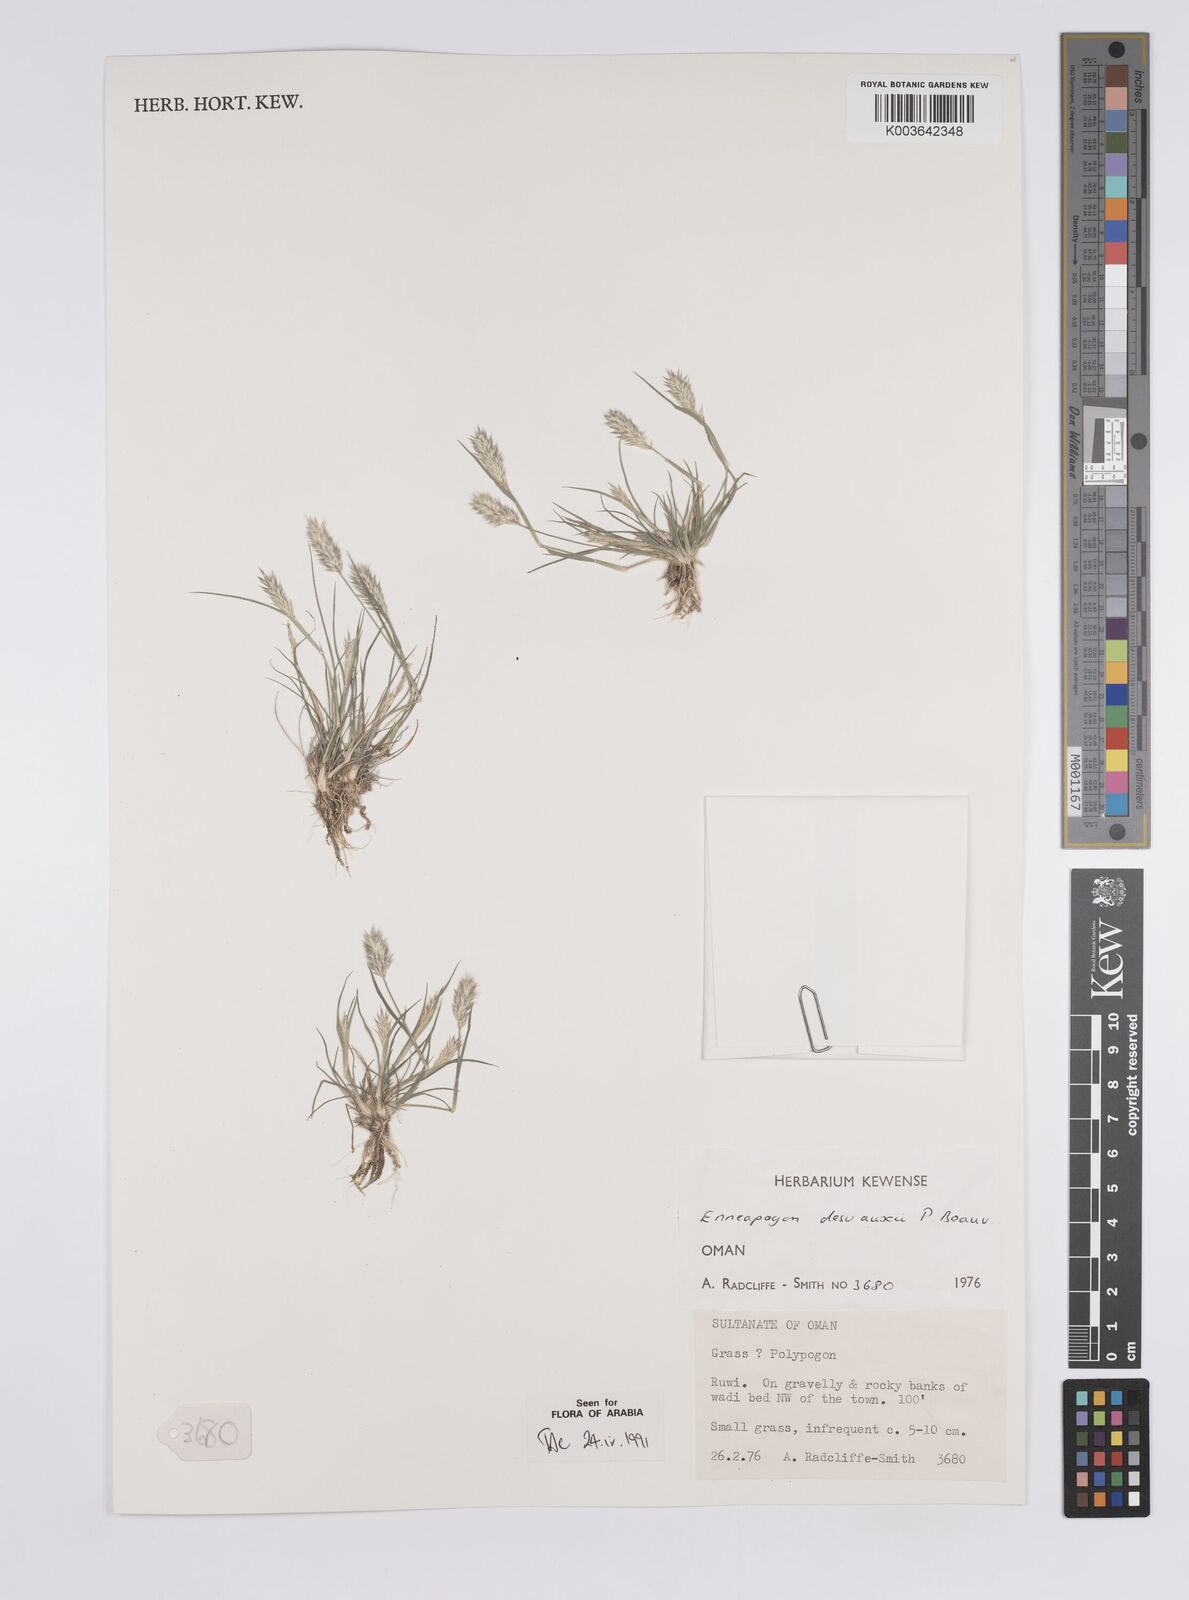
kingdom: Plantae
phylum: Tracheophyta
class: Liliopsida
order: Poales
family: Poaceae
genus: Enneapogon
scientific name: Enneapogon desvauxii
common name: Feather pappus grass
